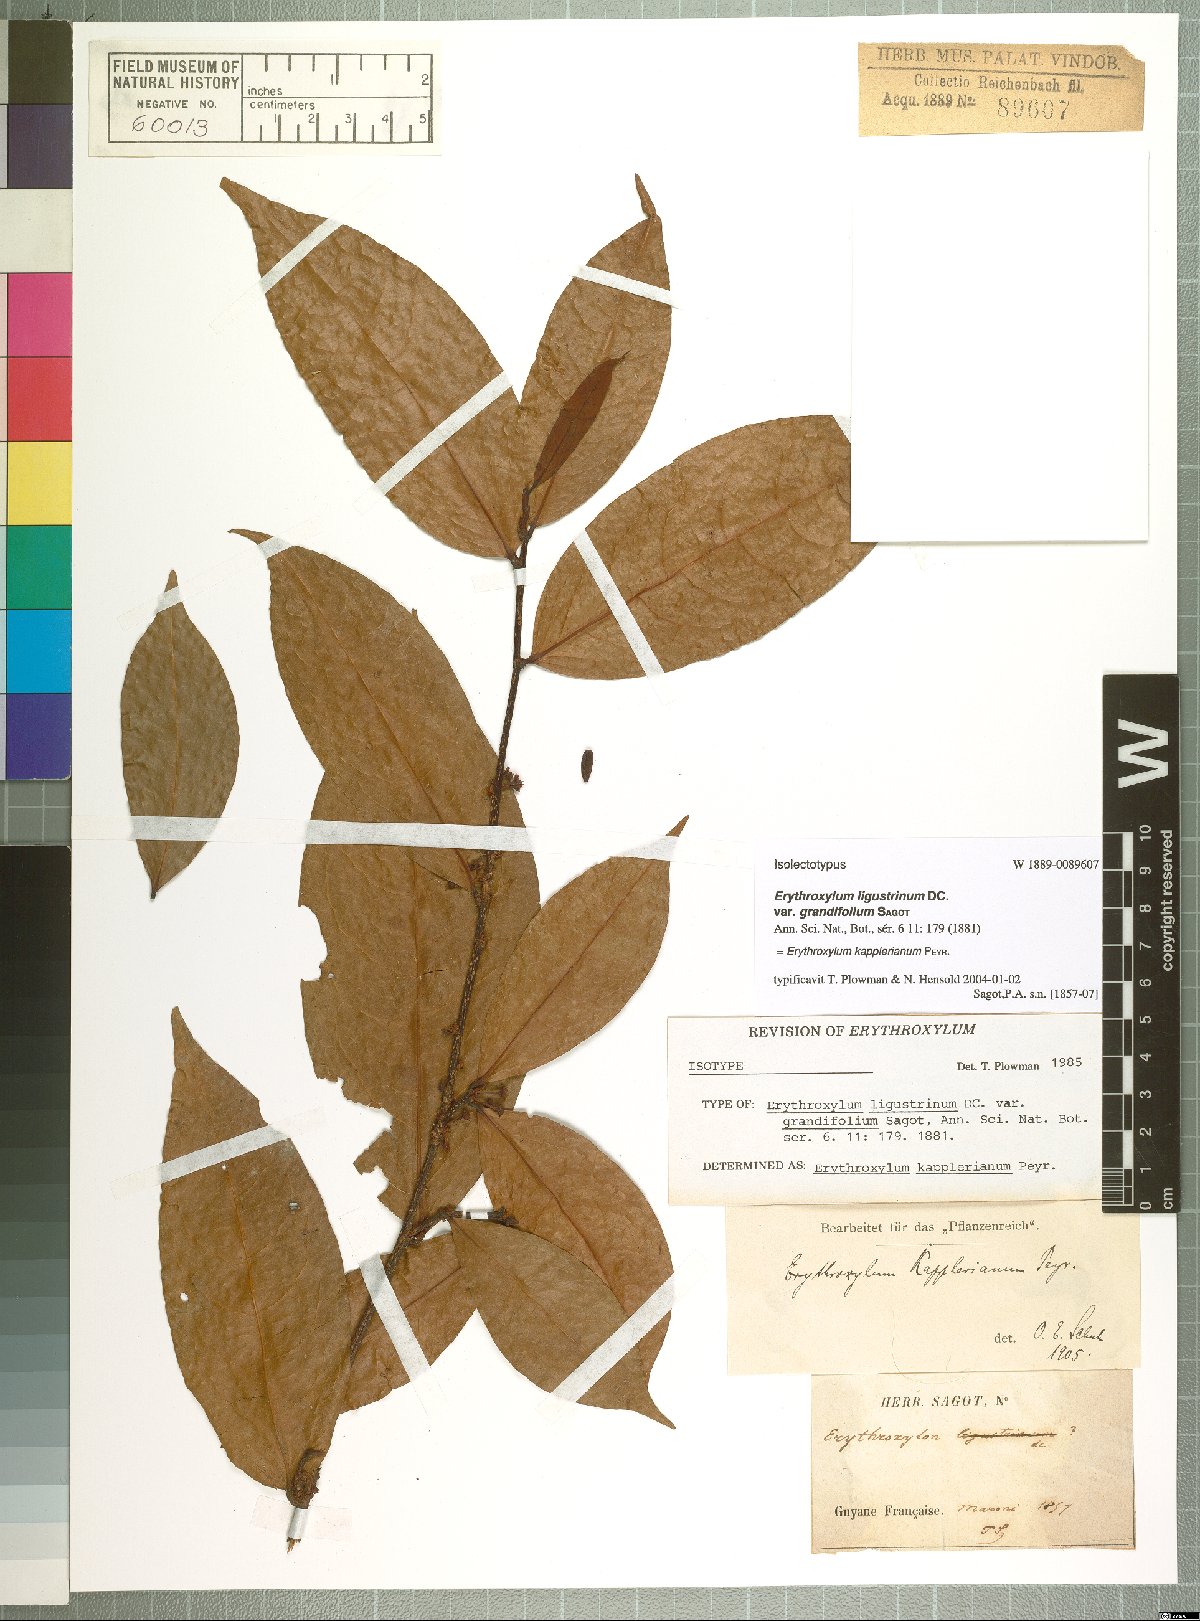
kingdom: Plantae
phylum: Tracheophyta
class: Magnoliopsida
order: Malpighiales
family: Erythroxylaceae
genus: Erythroxylum
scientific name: Erythroxylum kapplerianum
